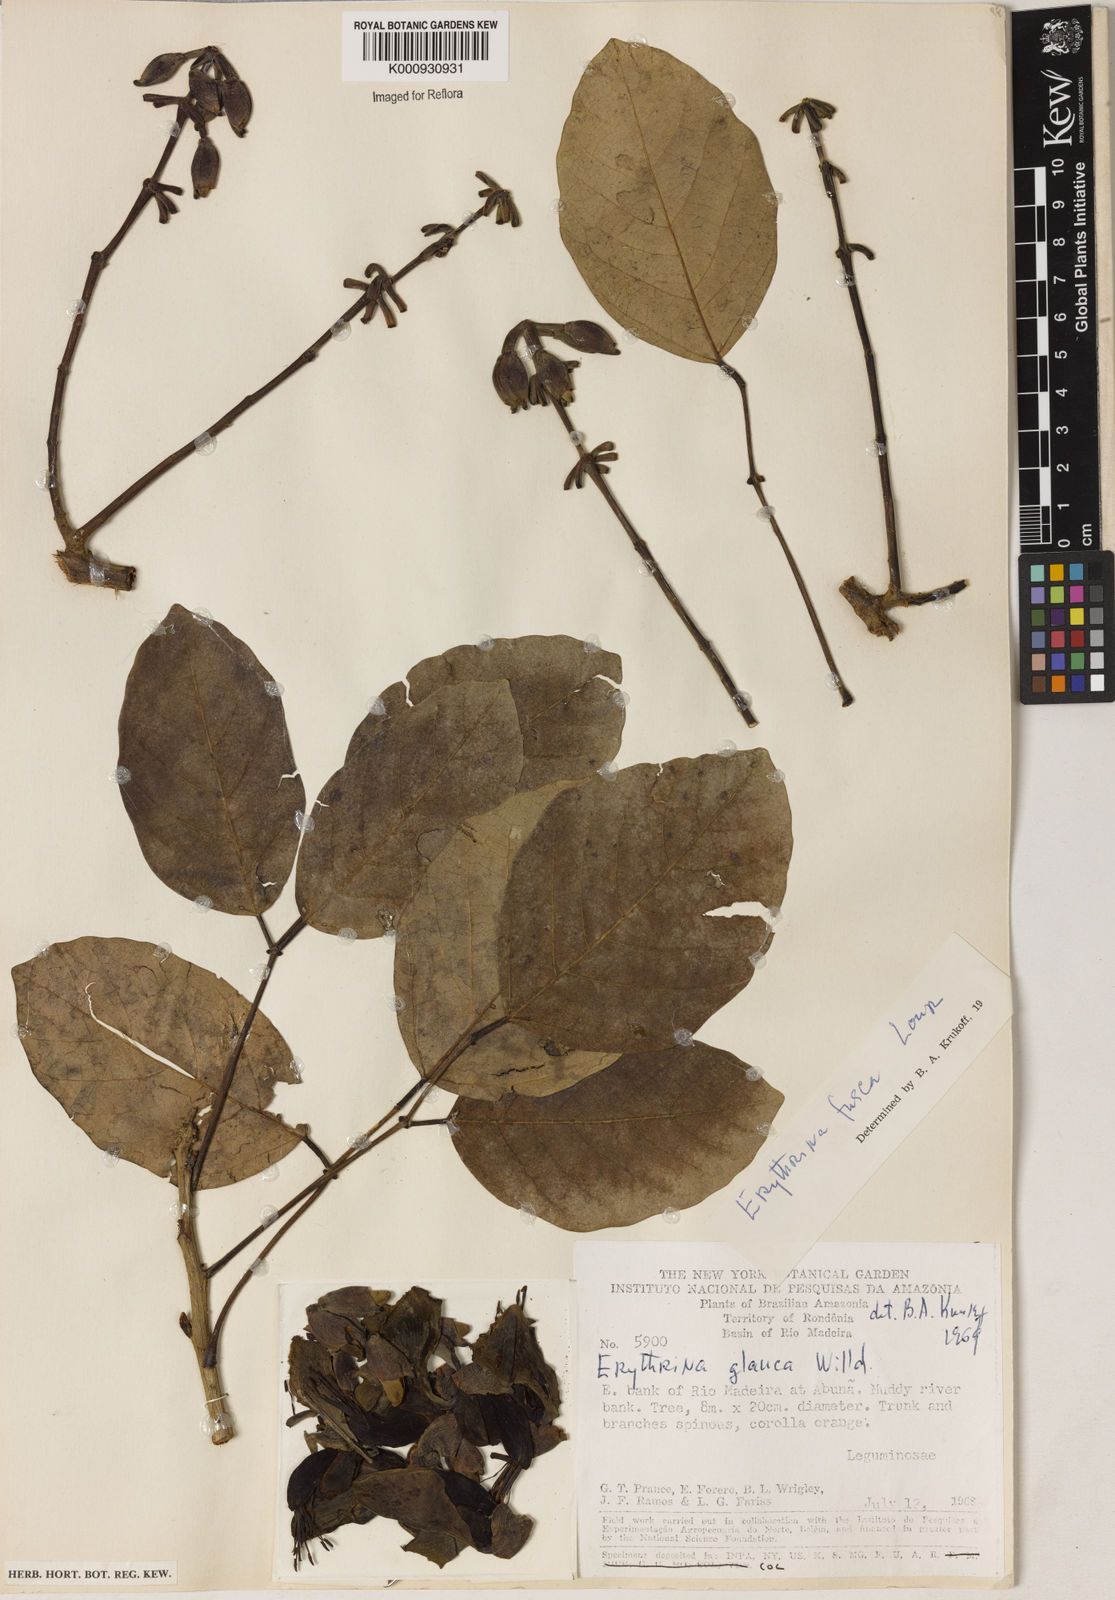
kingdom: Plantae
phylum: Tracheophyta
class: Magnoliopsida
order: Fabales
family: Fabaceae
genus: Erythrina
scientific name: Erythrina fusca
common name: Coral-bean
